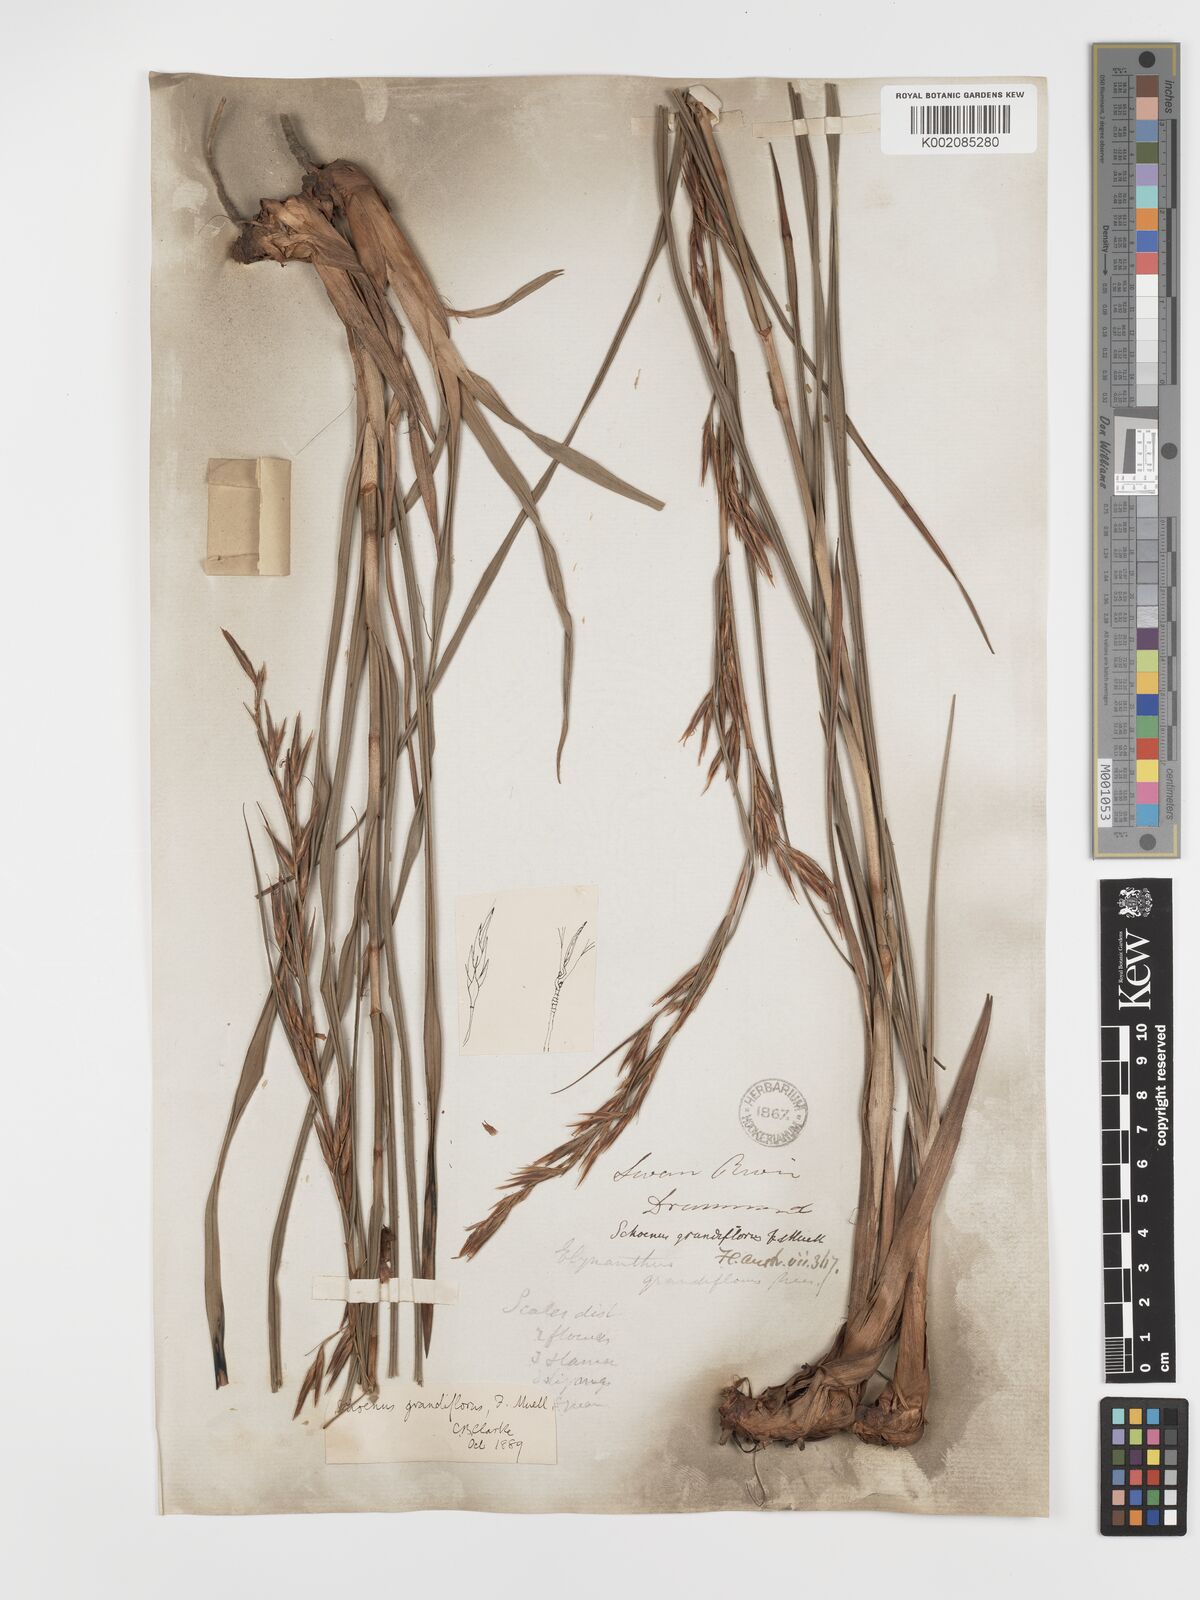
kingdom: Plantae
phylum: Tracheophyta
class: Liliopsida
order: Poales
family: Cyperaceae
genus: Schoenus
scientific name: Schoenus grandiflorus
